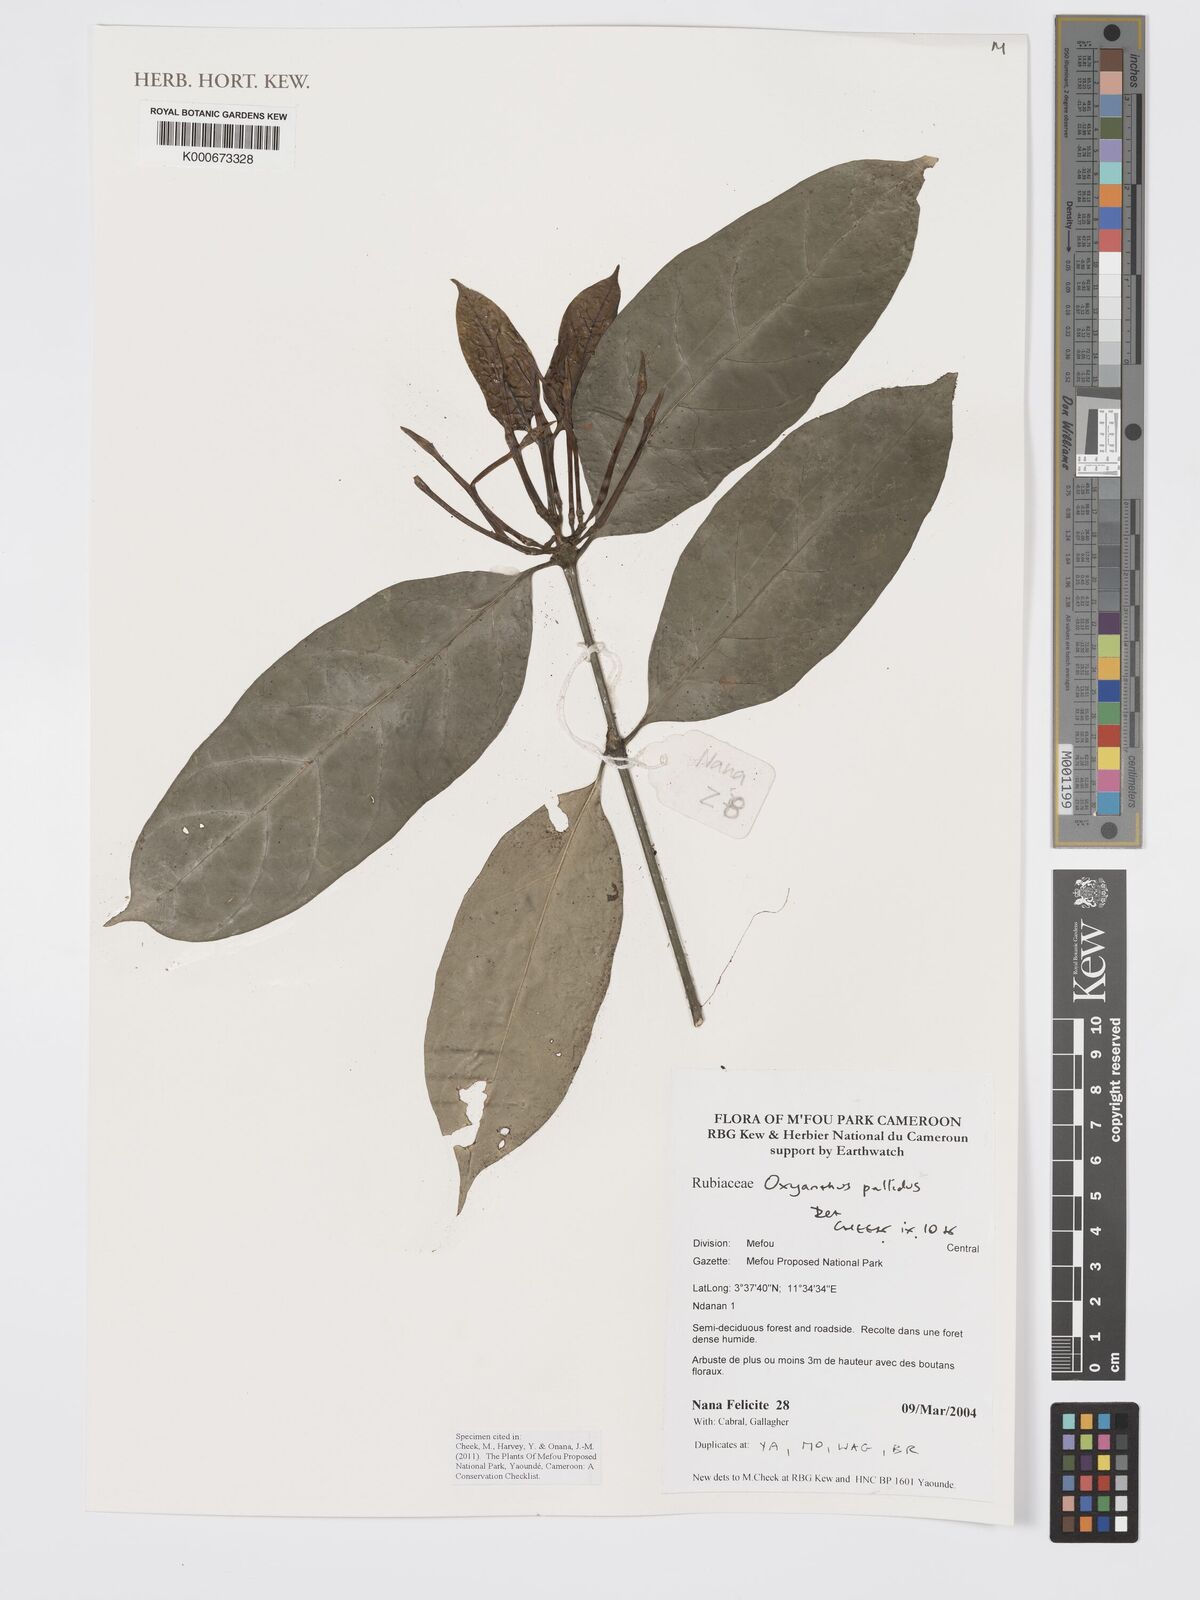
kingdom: Plantae
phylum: Tracheophyta
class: Magnoliopsida
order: Gentianales
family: Rubiaceae
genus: Oxyanthus
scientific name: Oxyanthus pallidus
